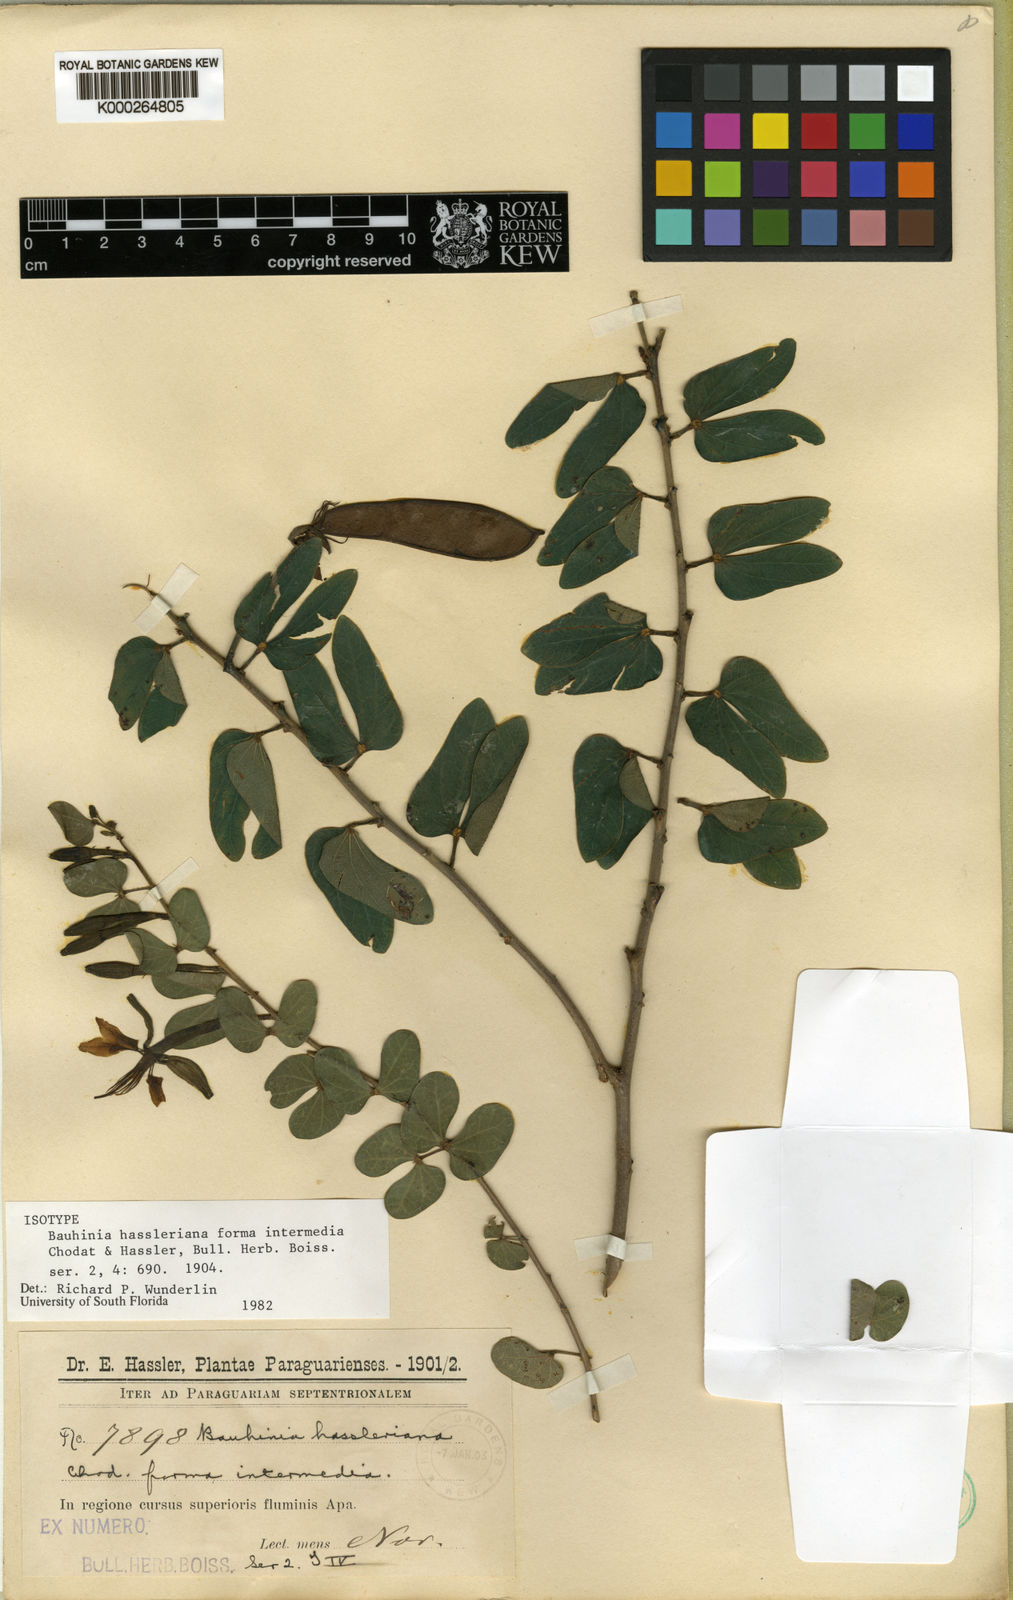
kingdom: Plantae
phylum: Tracheophyta
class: Magnoliopsida
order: Fabales
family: Fabaceae
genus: Bauhinia
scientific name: Bauhinia hagenbeckii
